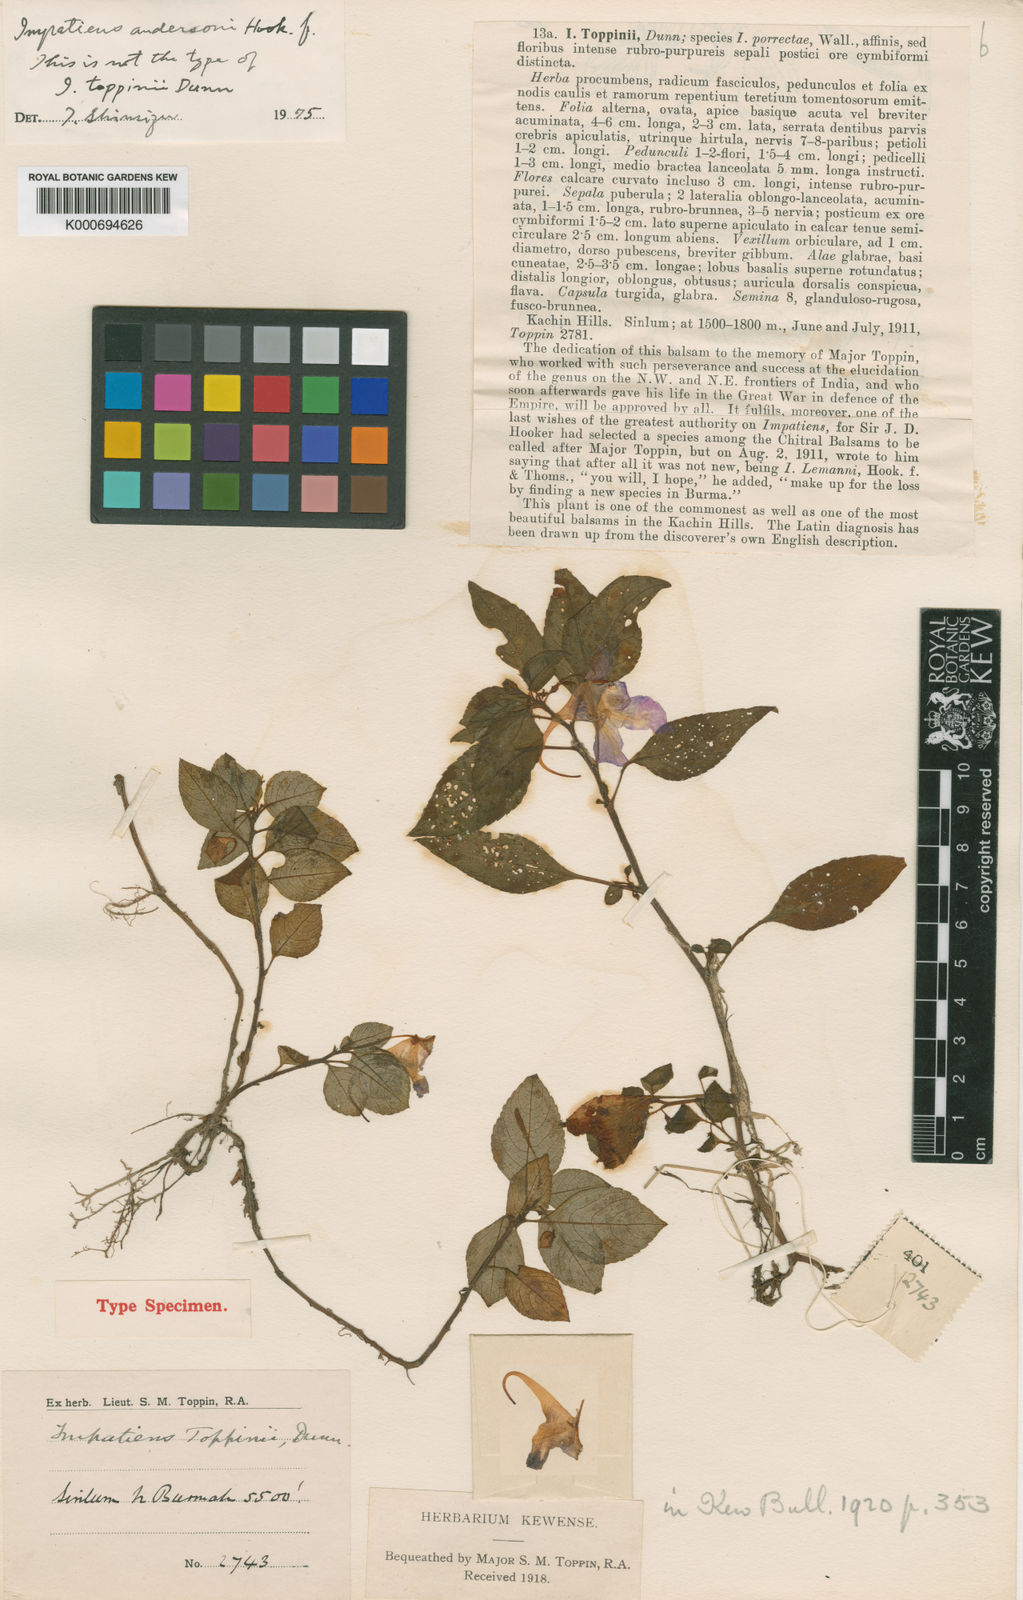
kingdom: Plantae
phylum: Tracheophyta
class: Magnoliopsida
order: Ericales
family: Balsaminaceae
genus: Impatiens
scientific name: Impatiens porrecta
